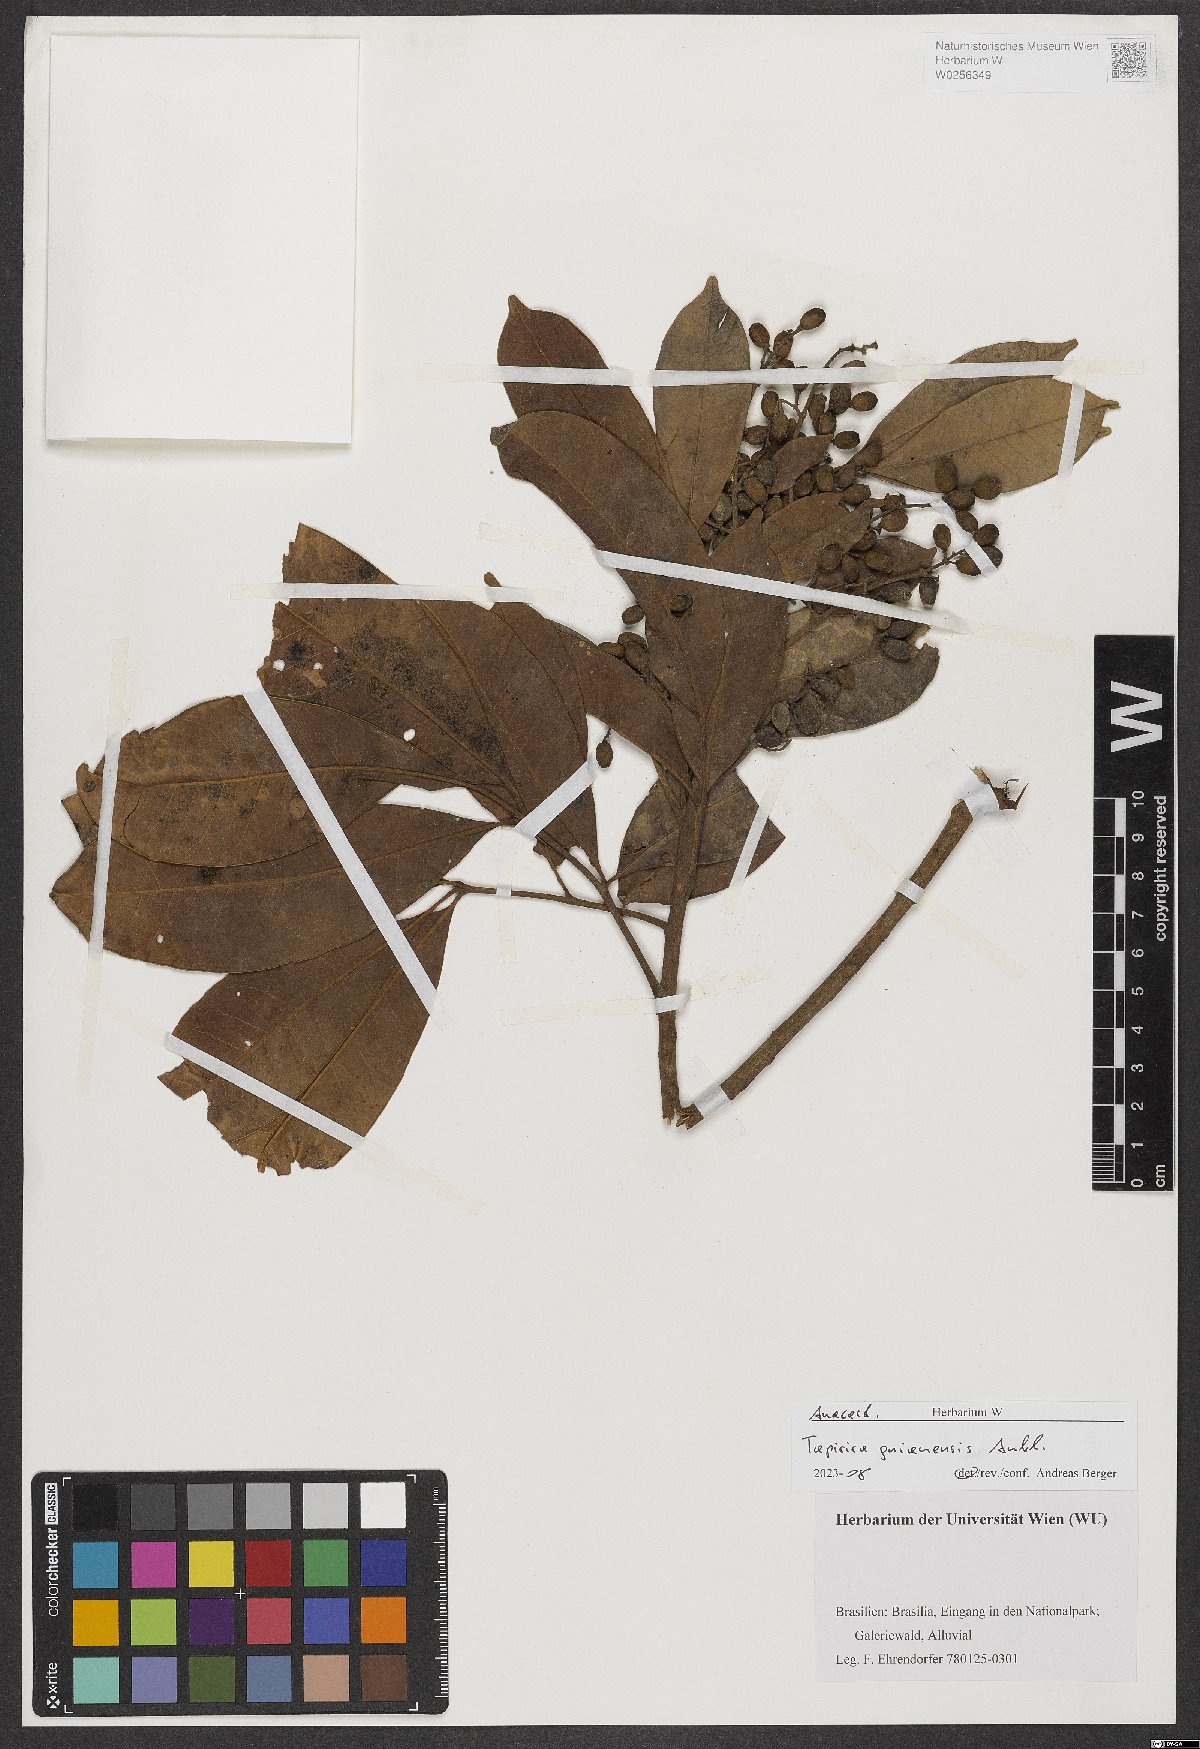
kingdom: Plantae
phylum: Tracheophyta
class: Magnoliopsida
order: Sapindales
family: Anacardiaceae
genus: Tapirira
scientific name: Tapirira guianensis
